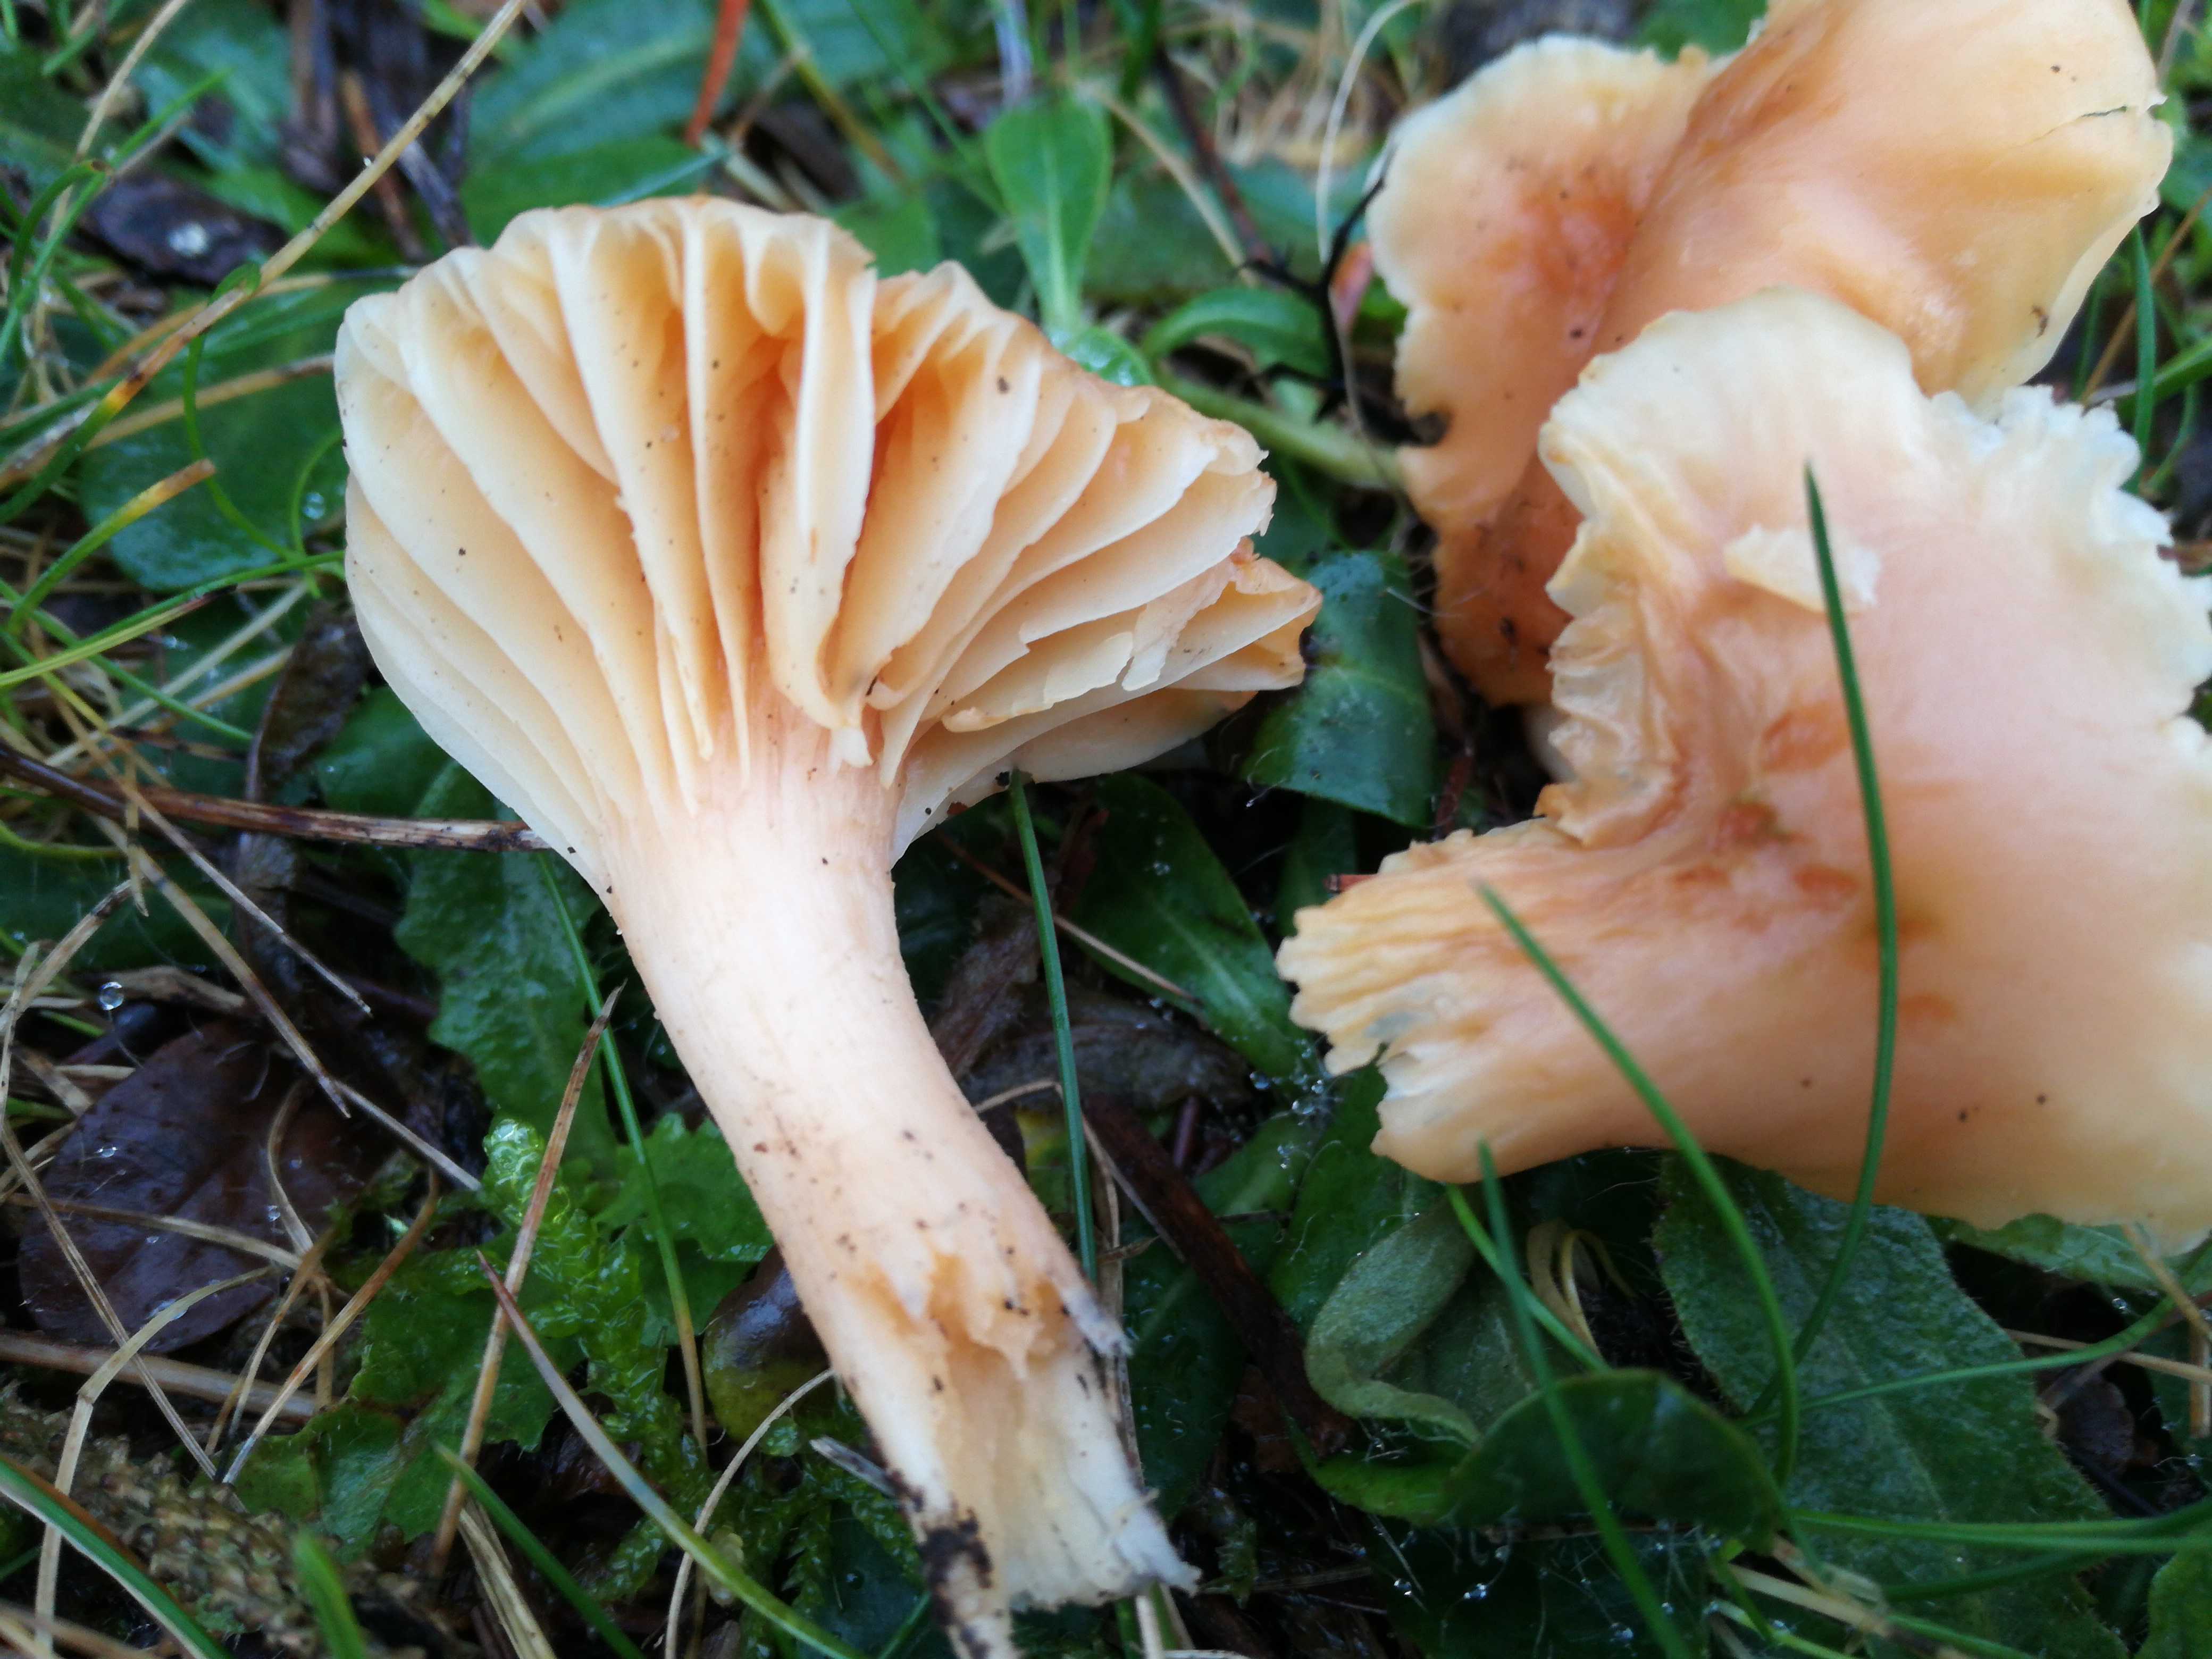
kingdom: Fungi
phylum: Basidiomycota
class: Agaricomycetes
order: Agaricales
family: Hygrophoraceae
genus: Cuphophyllus
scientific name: Cuphophyllus pratensis
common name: eng-vokshat
